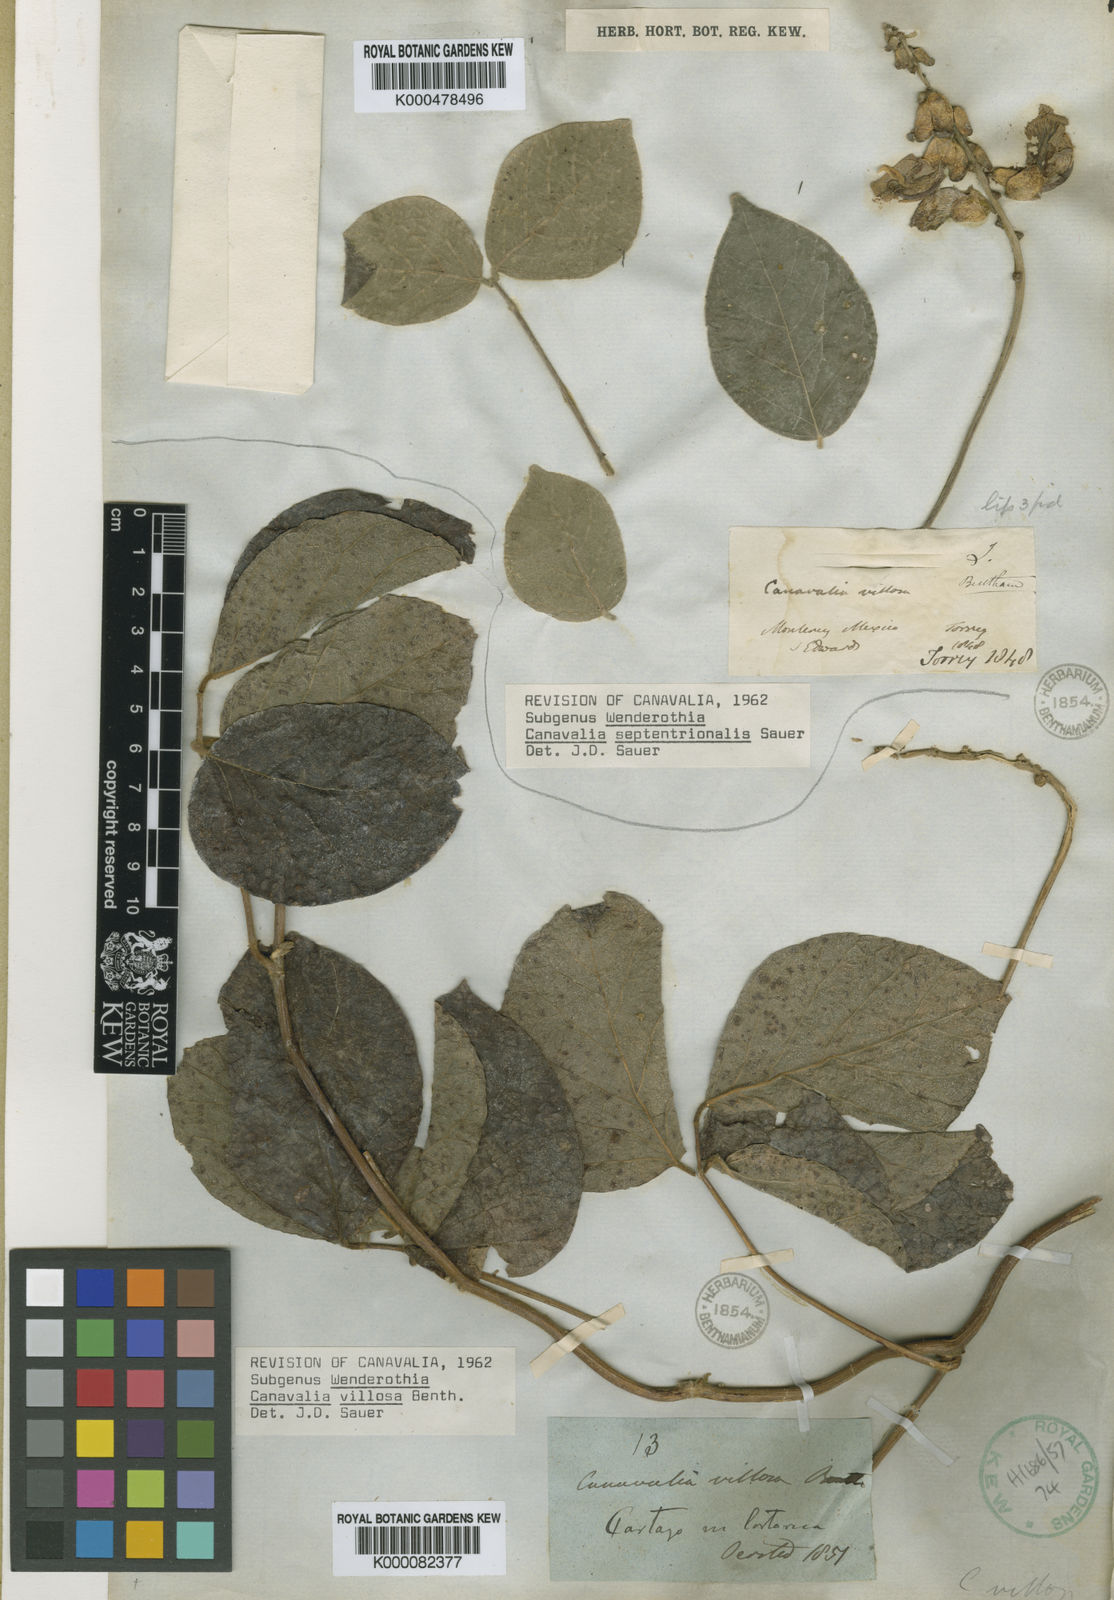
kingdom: Plantae
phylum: Tracheophyta
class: Magnoliopsida
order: Fabales
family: Fabaceae
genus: Canavalia
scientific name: Canavalia villosa
